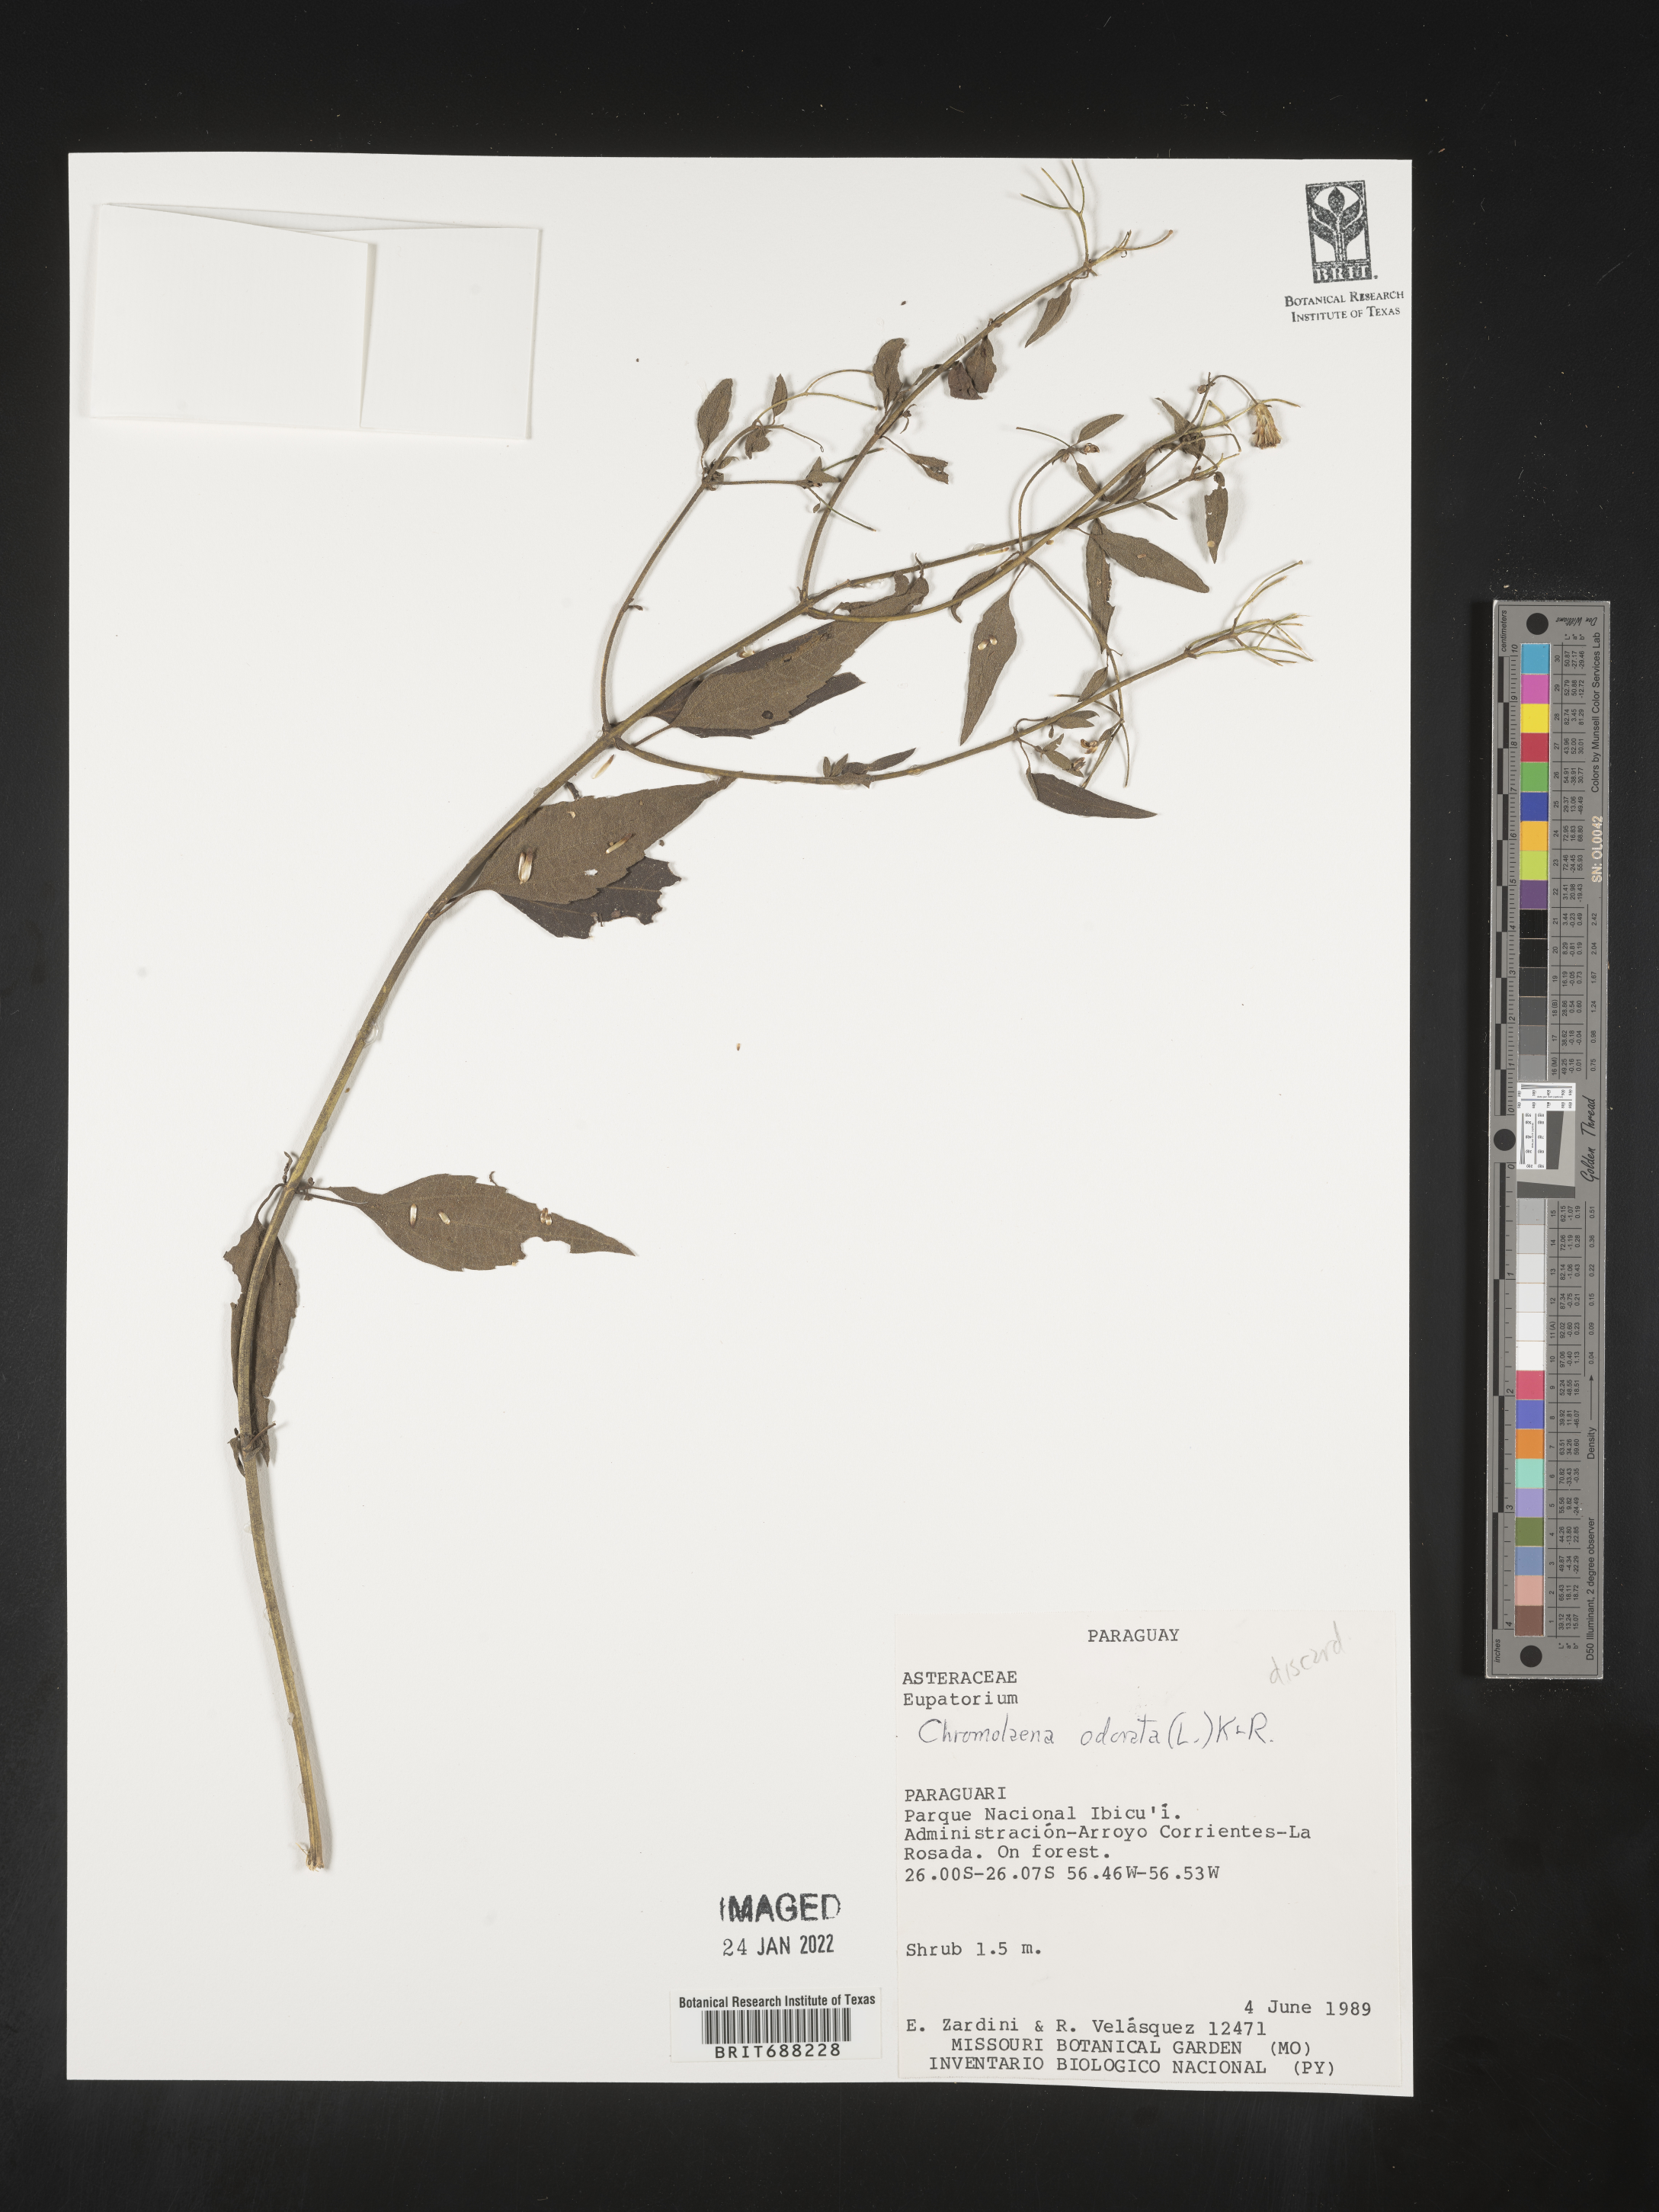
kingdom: Plantae
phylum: Tracheophyta
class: Magnoliopsida
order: Asterales
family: Asteraceae
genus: Chromolaena
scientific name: Chromolaena
